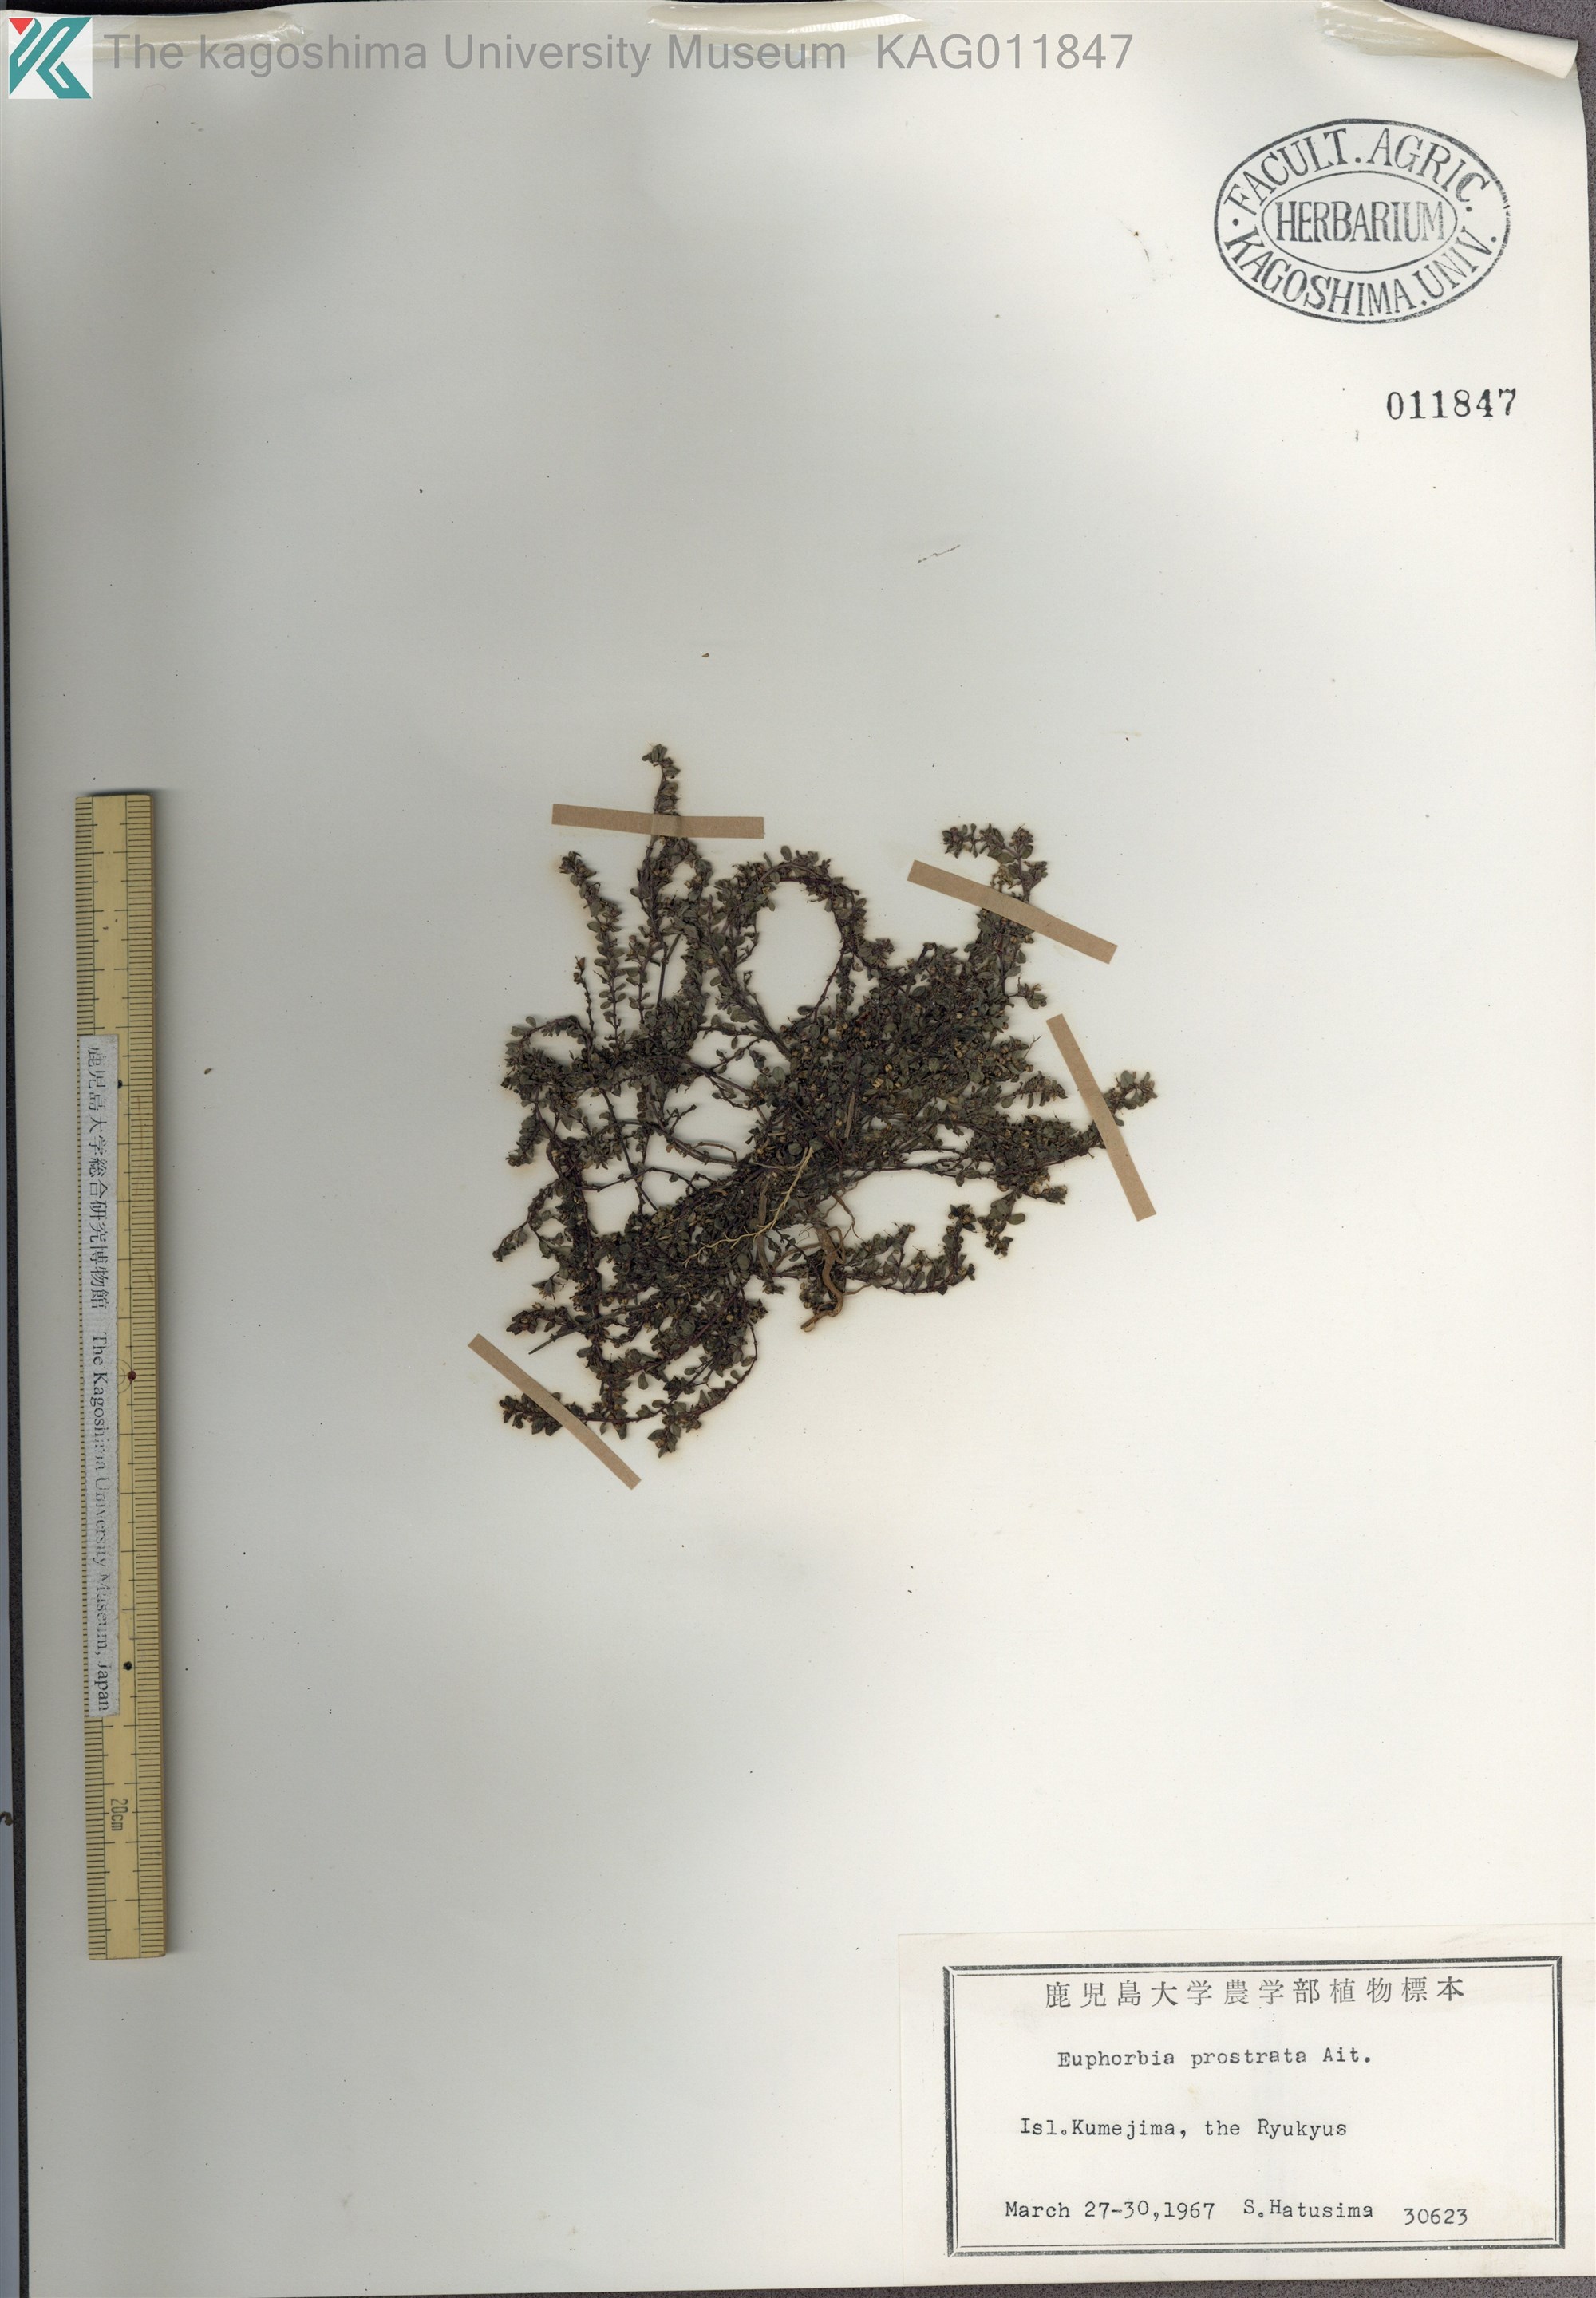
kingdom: Plantae
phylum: Tracheophyta
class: Magnoliopsida
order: Malpighiales
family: Euphorbiaceae
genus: Euphorbia
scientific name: Euphorbia prostrata
